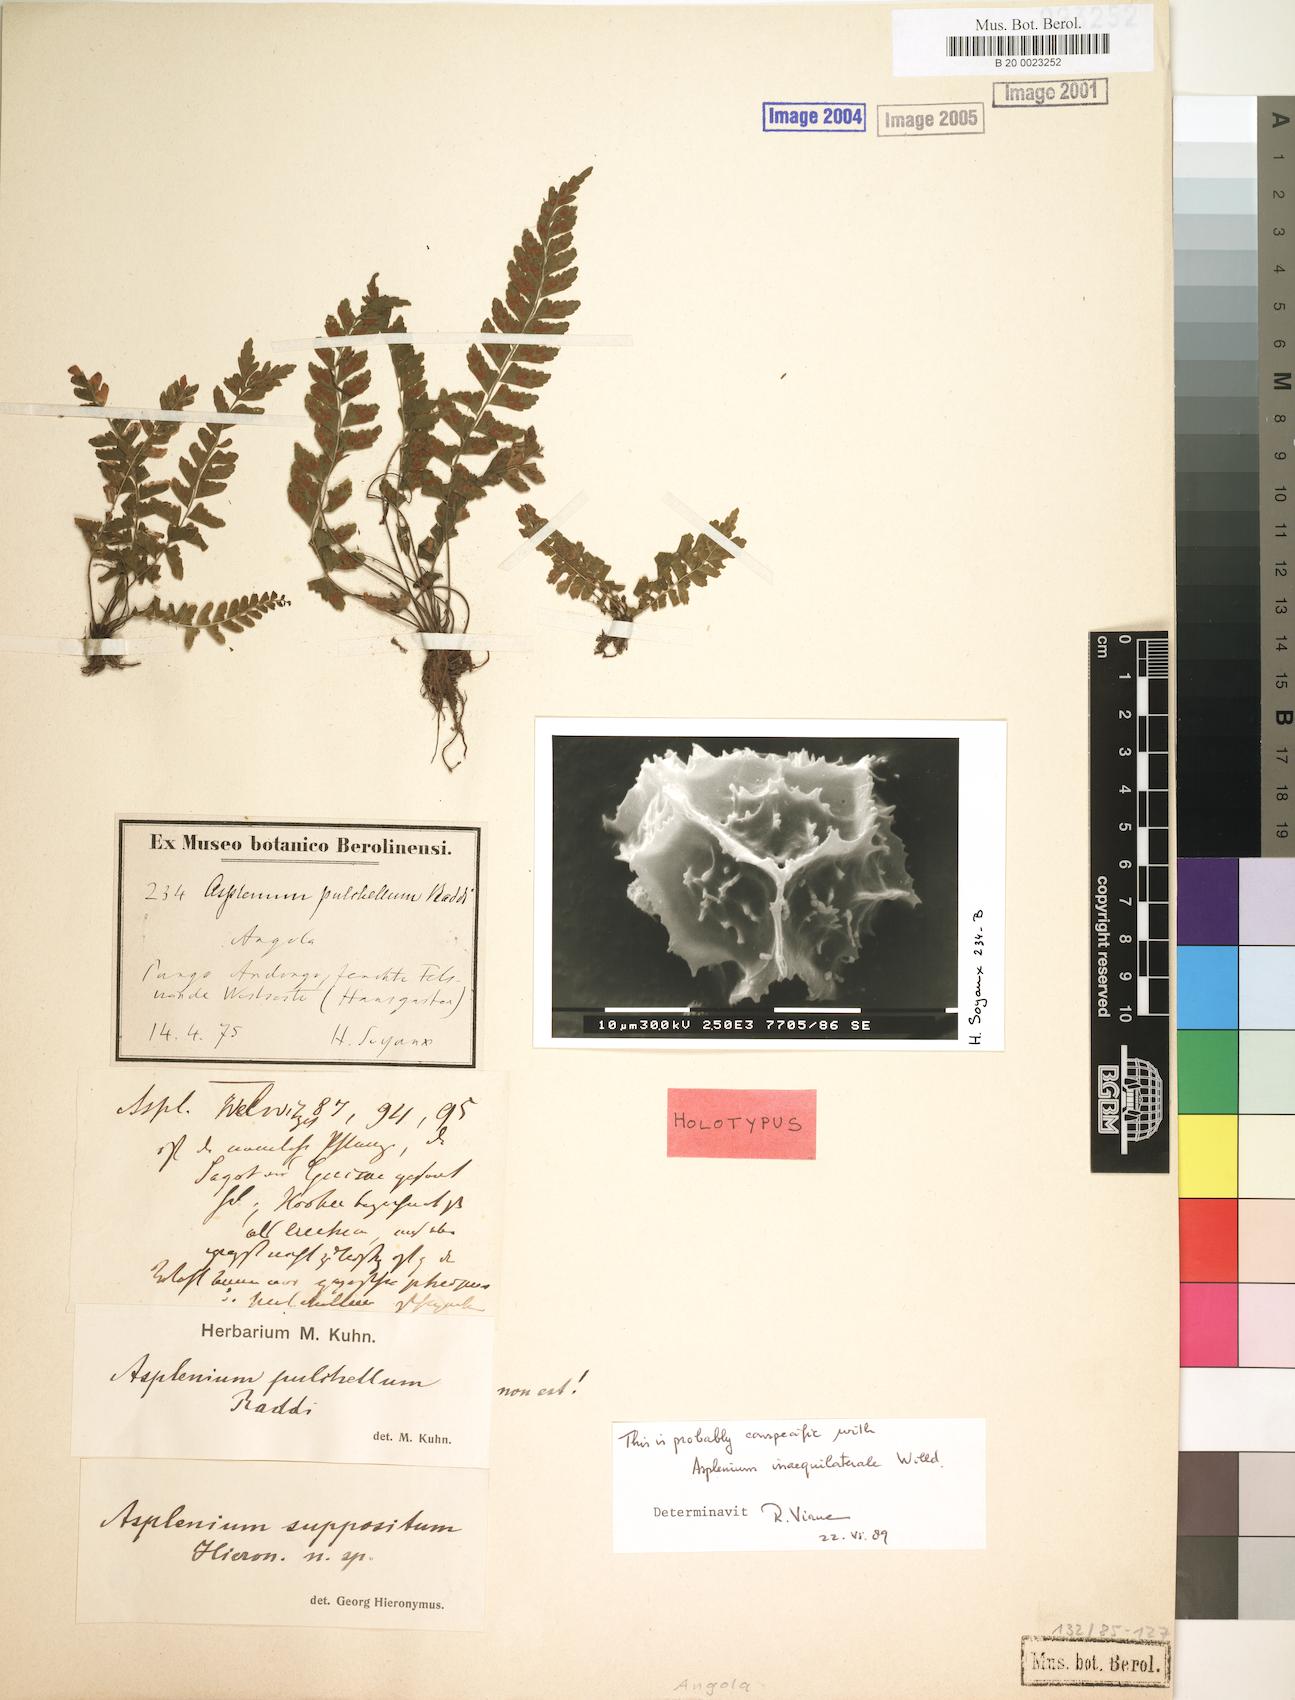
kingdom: Plantae
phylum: Tracheophyta
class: Polypodiopsida
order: Polypodiales
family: Aspleniaceae
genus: Asplenium
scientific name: Asplenium inaequilaterale
